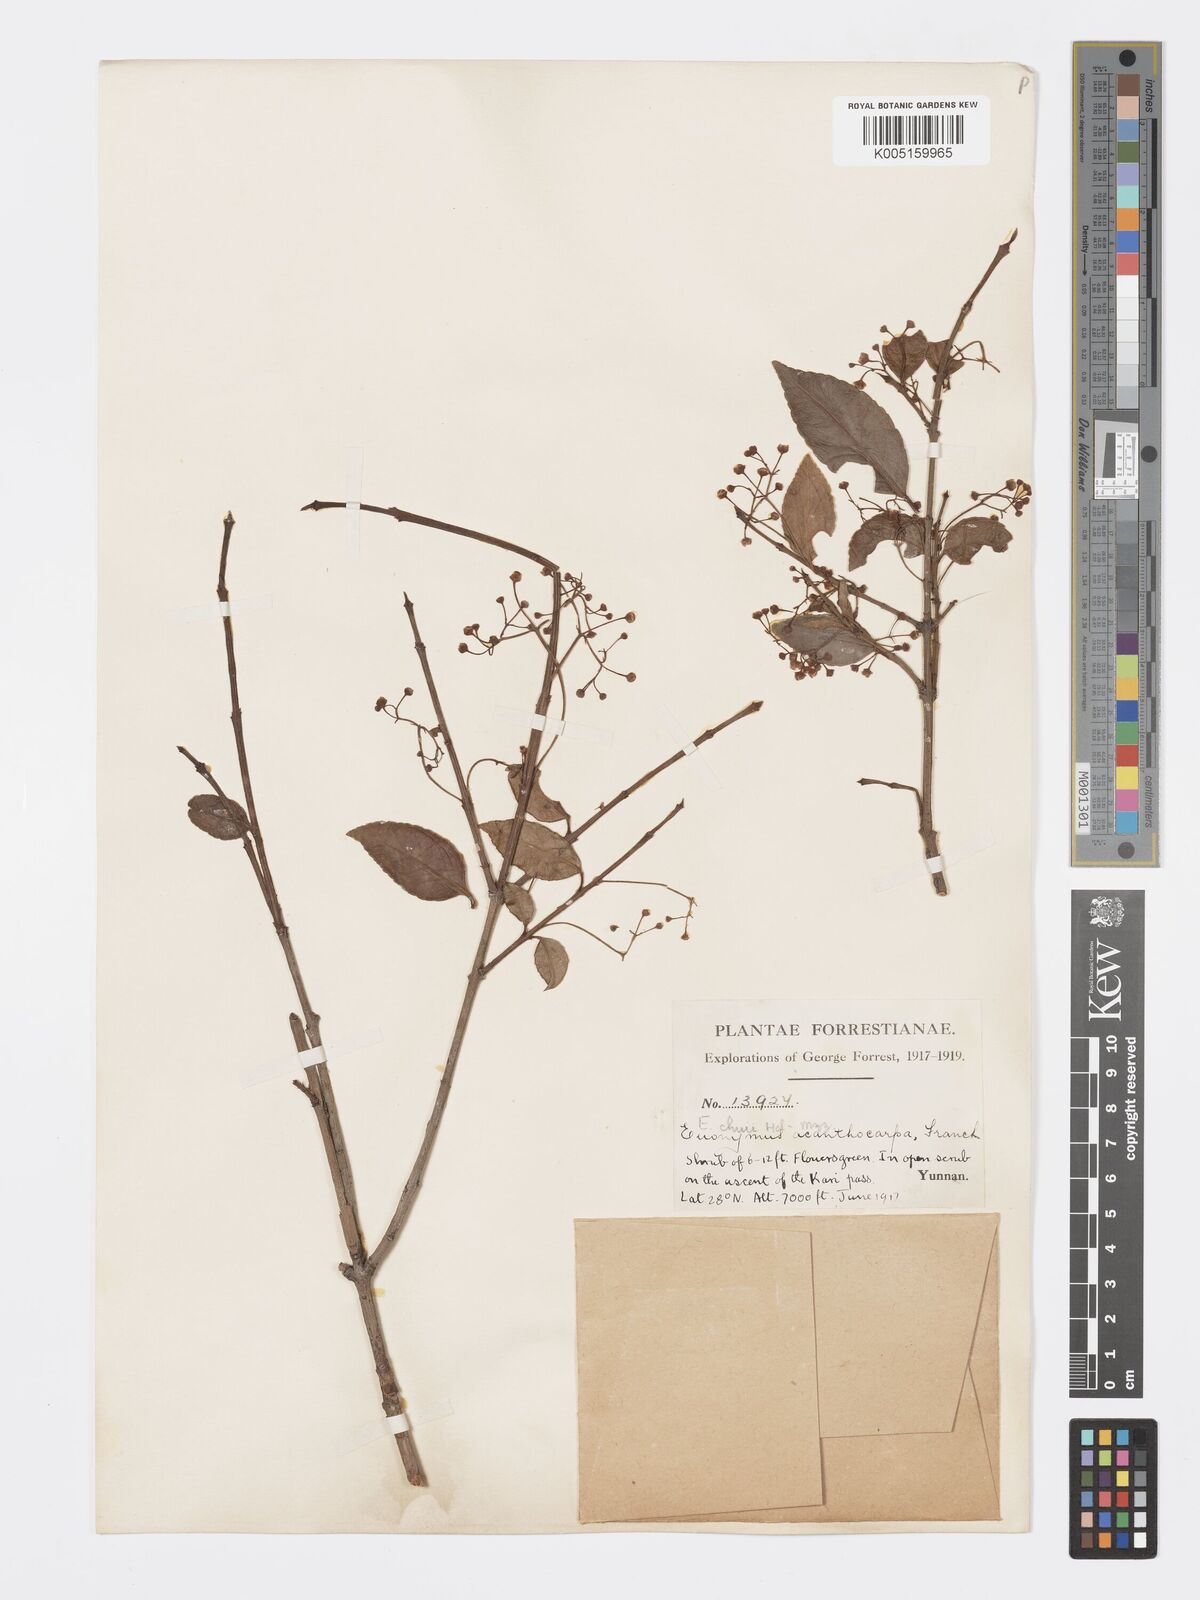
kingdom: Plantae
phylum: Tracheophyta
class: Magnoliopsida
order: Celastrales
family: Celastraceae
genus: Euonymus
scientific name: Euonymus chui
